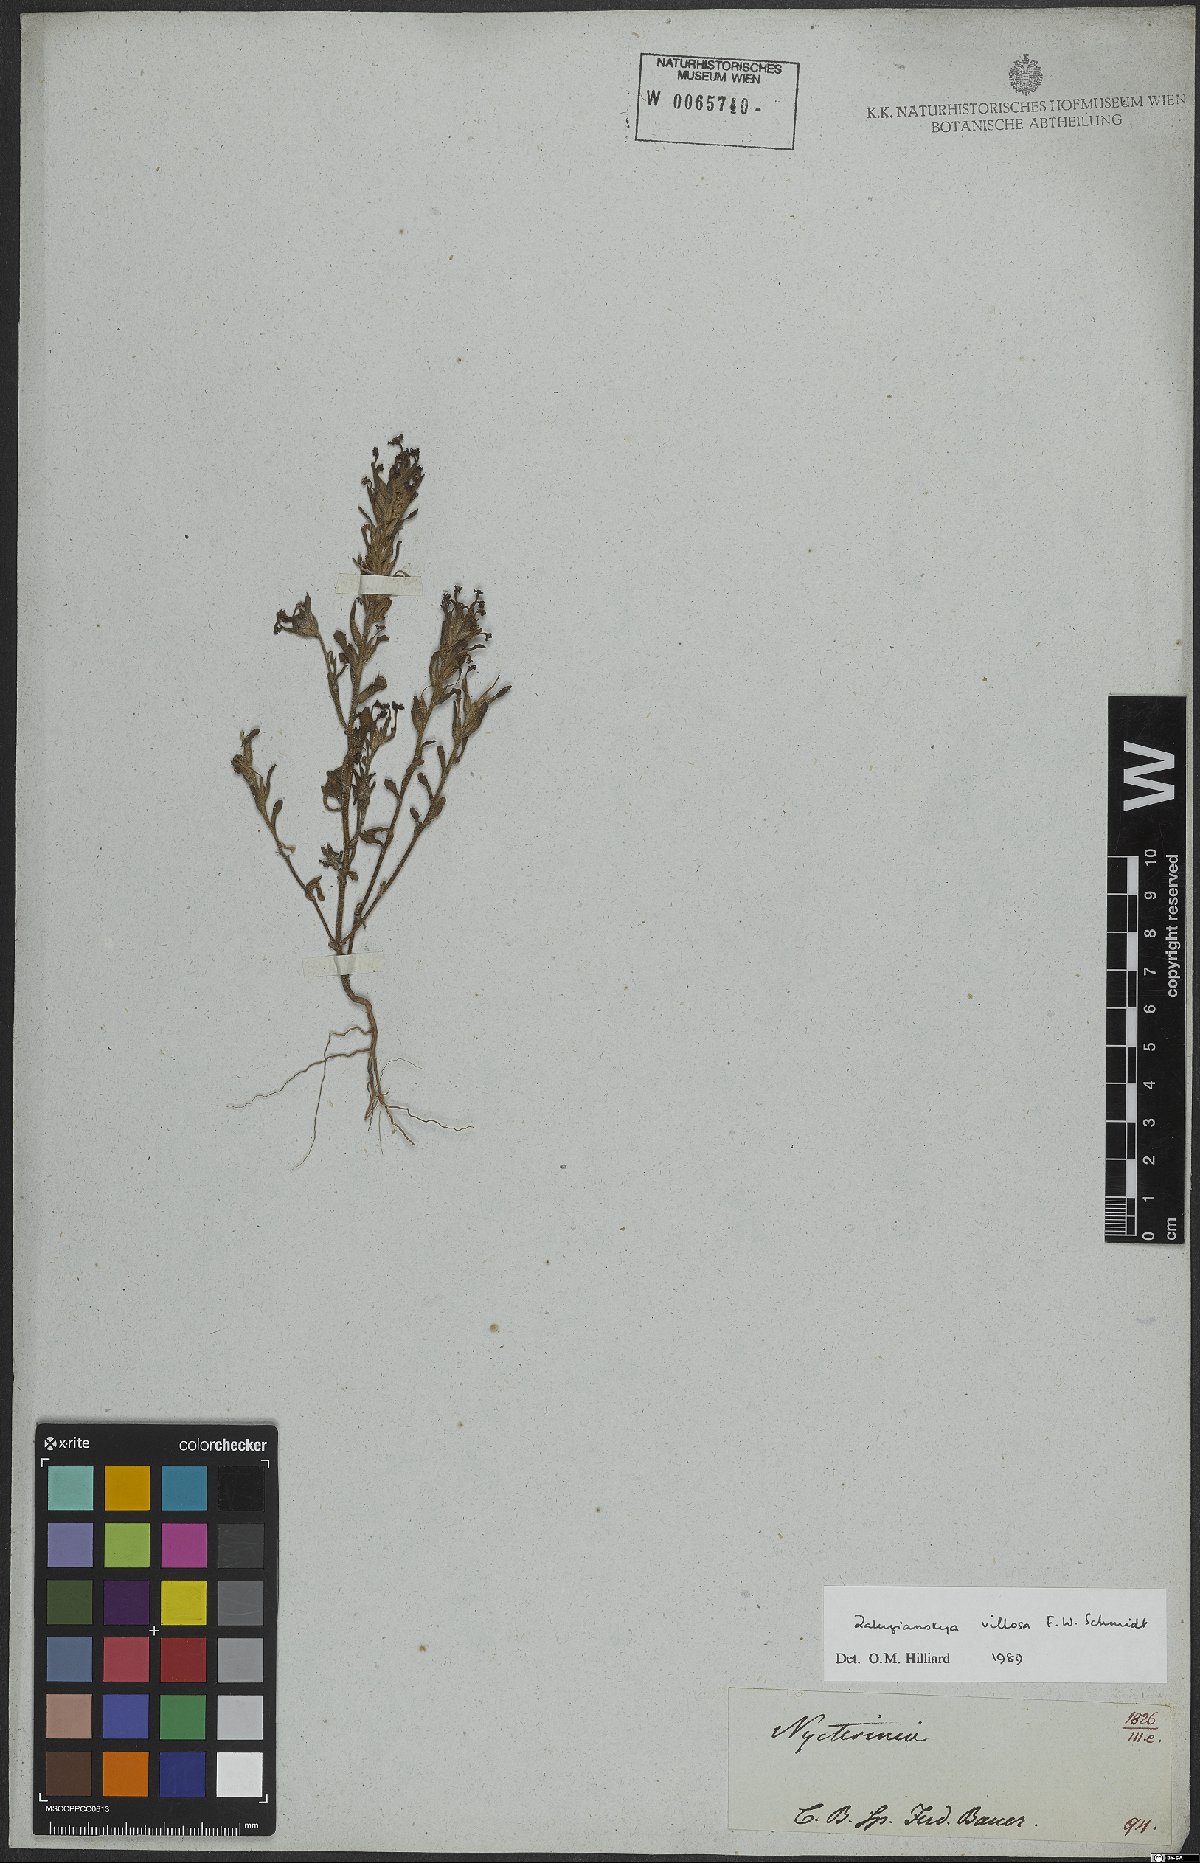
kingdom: Plantae
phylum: Tracheophyta
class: Magnoliopsida
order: Lamiales
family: Scrophulariaceae
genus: Zaluzianskya
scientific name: Zaluzianskya villosa
